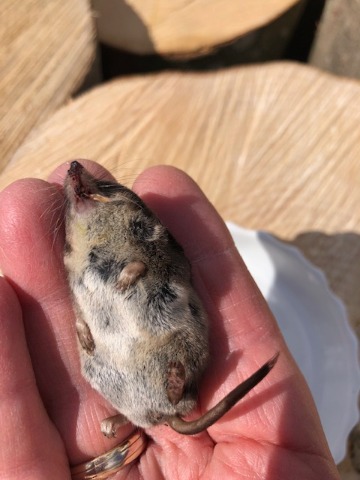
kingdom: Animalia
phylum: Chordata
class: Mammalia
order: Soricomorpha
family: Soricidae
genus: Sorex
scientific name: Sorex araneus
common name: Almindelig spidsmus
